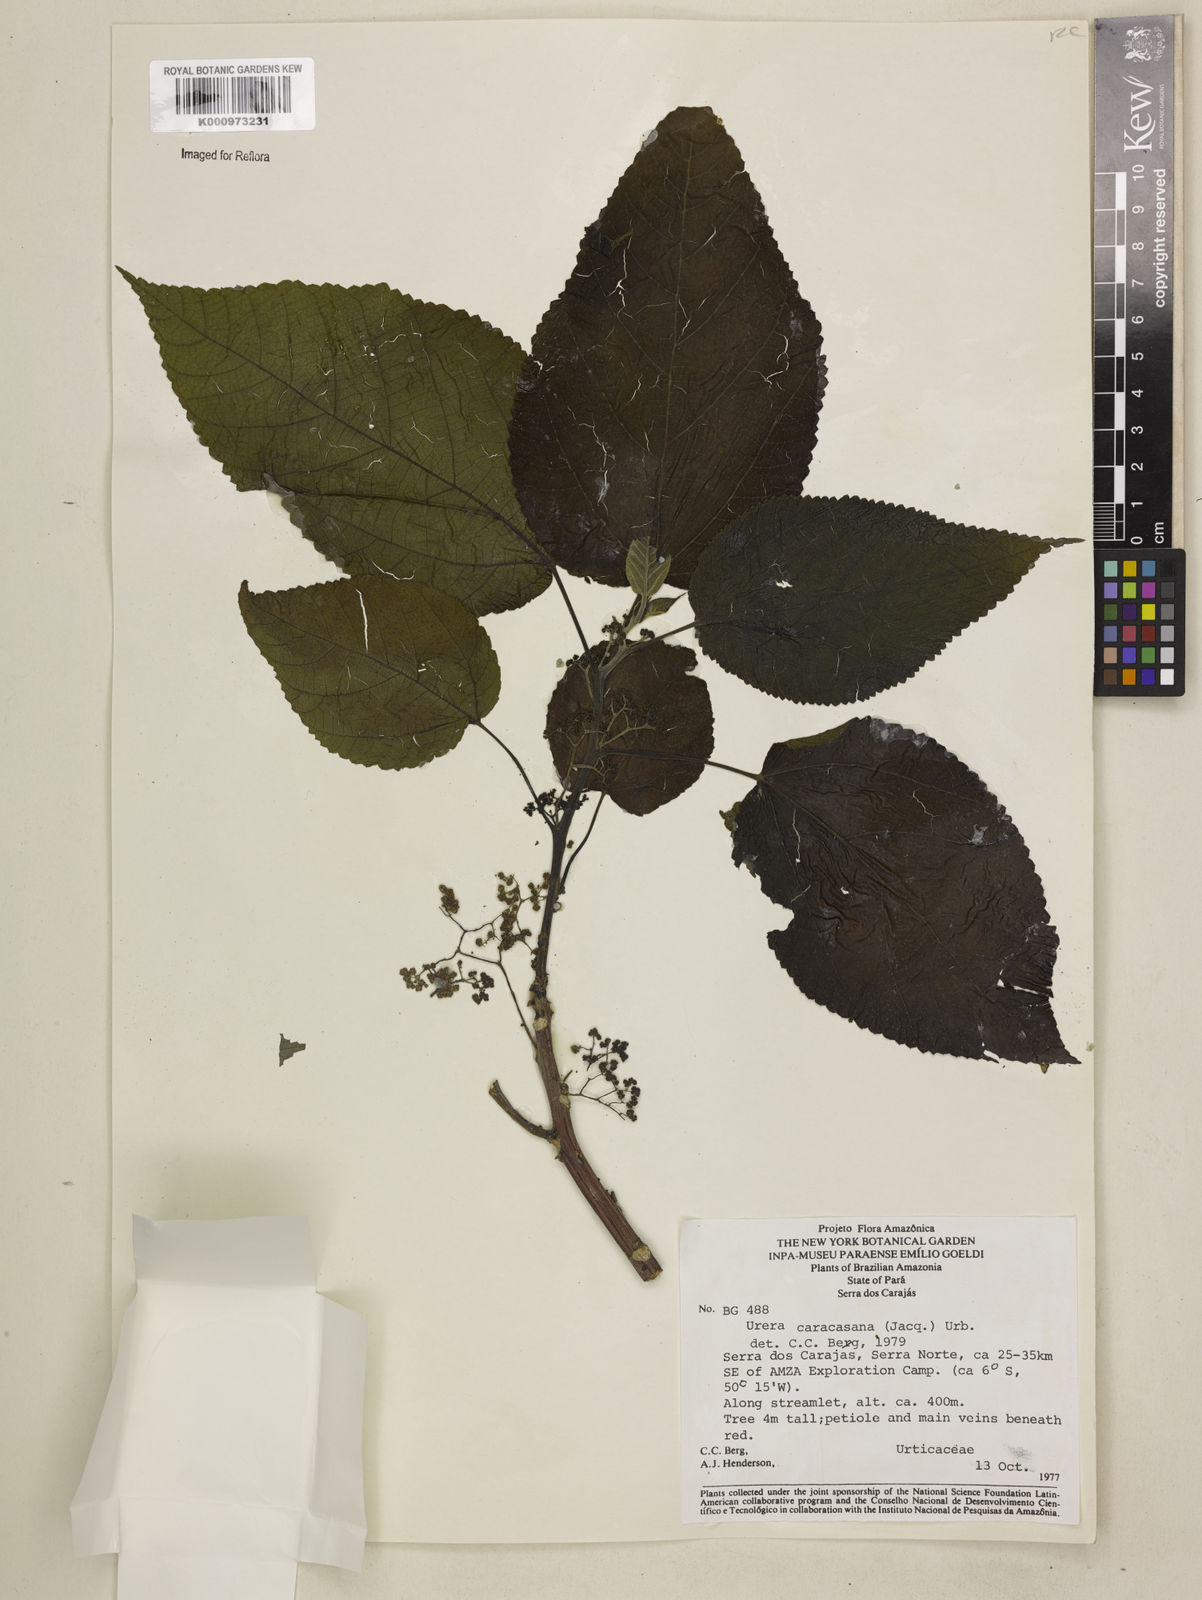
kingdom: Plantae
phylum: Tracheophyta
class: Magnoliopsida
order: Rosales
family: Urticaceae
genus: Urera
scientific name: Urera caracasana
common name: Flameberry
